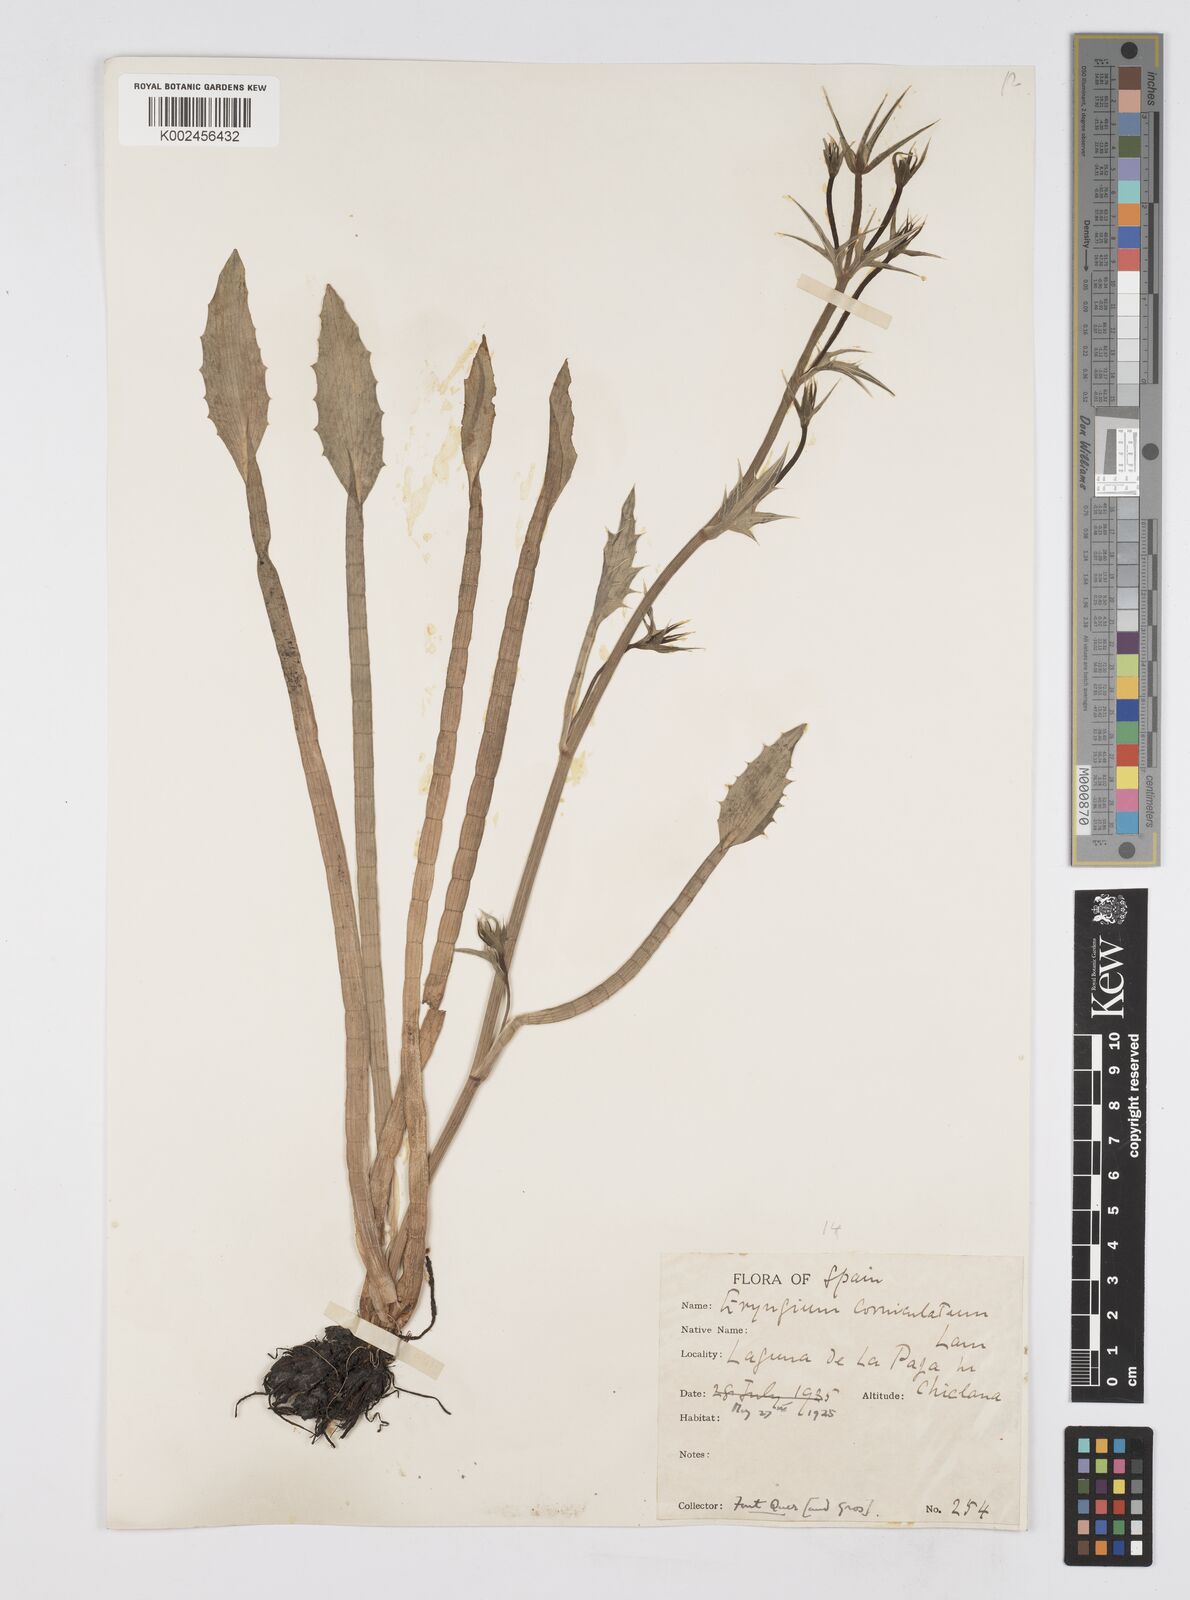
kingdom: Plantae
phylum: Tracheophyta
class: Magnoliopsida
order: Apiales
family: Apiaceae
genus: Eryngium
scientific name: Eryngium corniculatum
